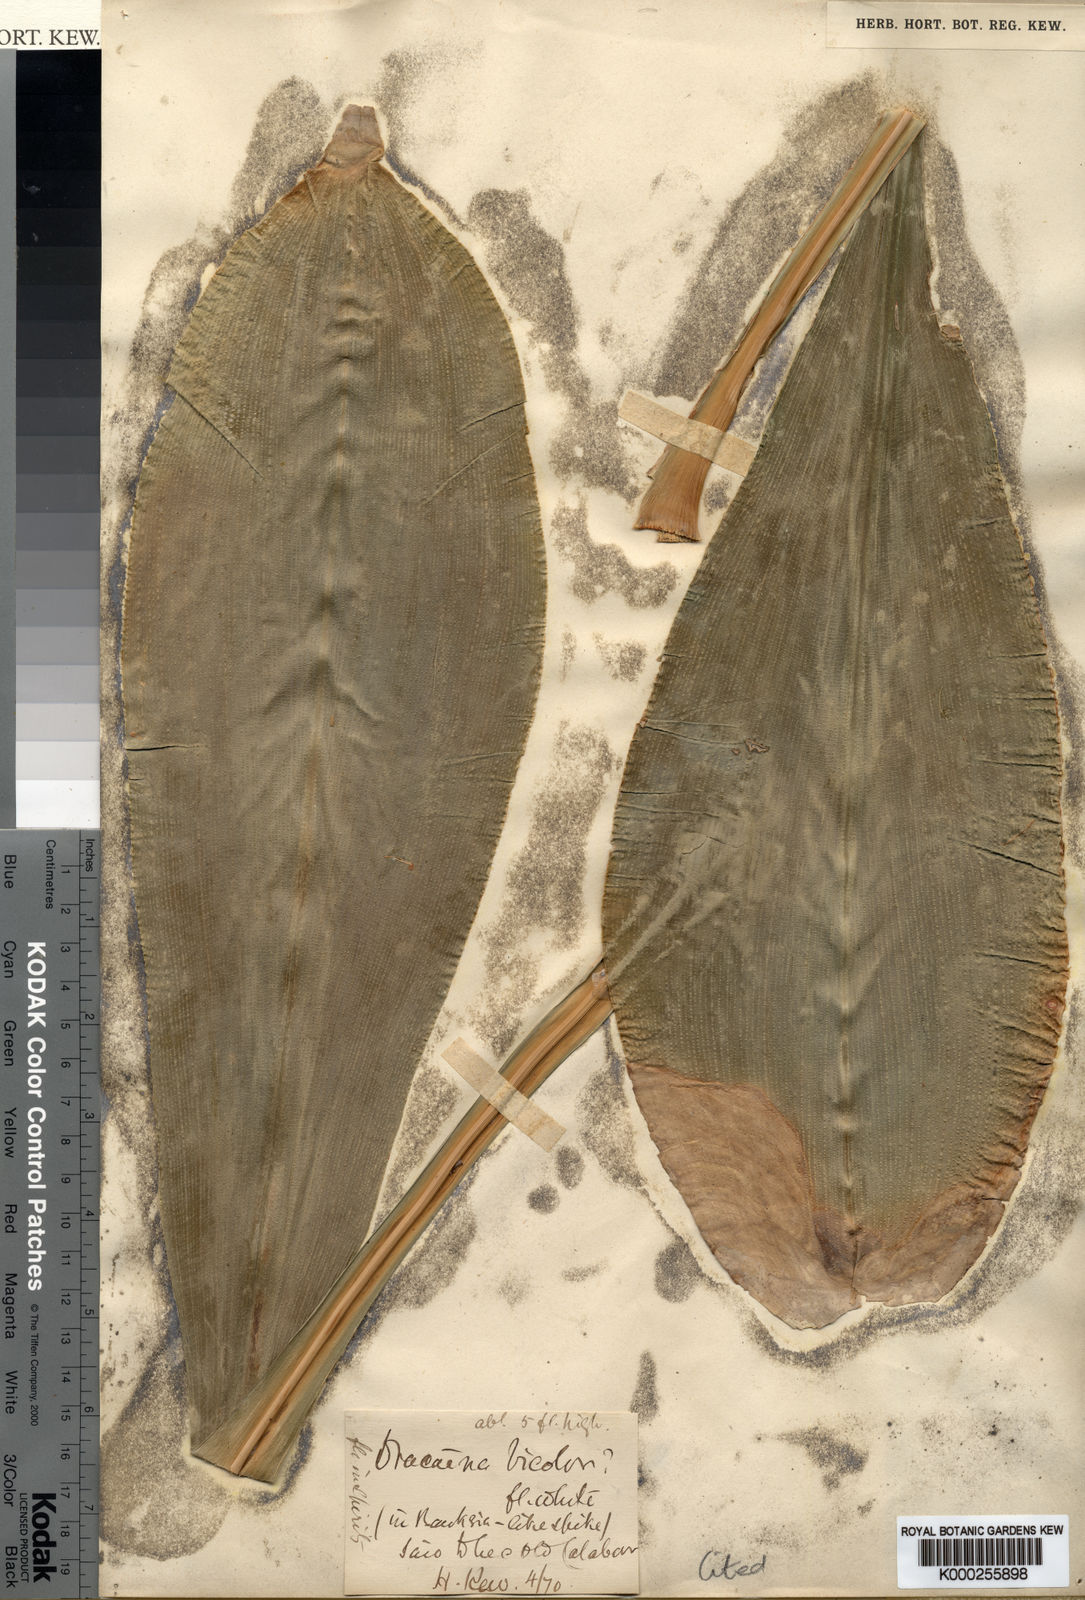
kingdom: Plantae
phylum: Tracheophyta
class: Liliopsida
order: Asparagales
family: Asparagaceae
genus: Dracaena
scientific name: Dracaena bicolor
